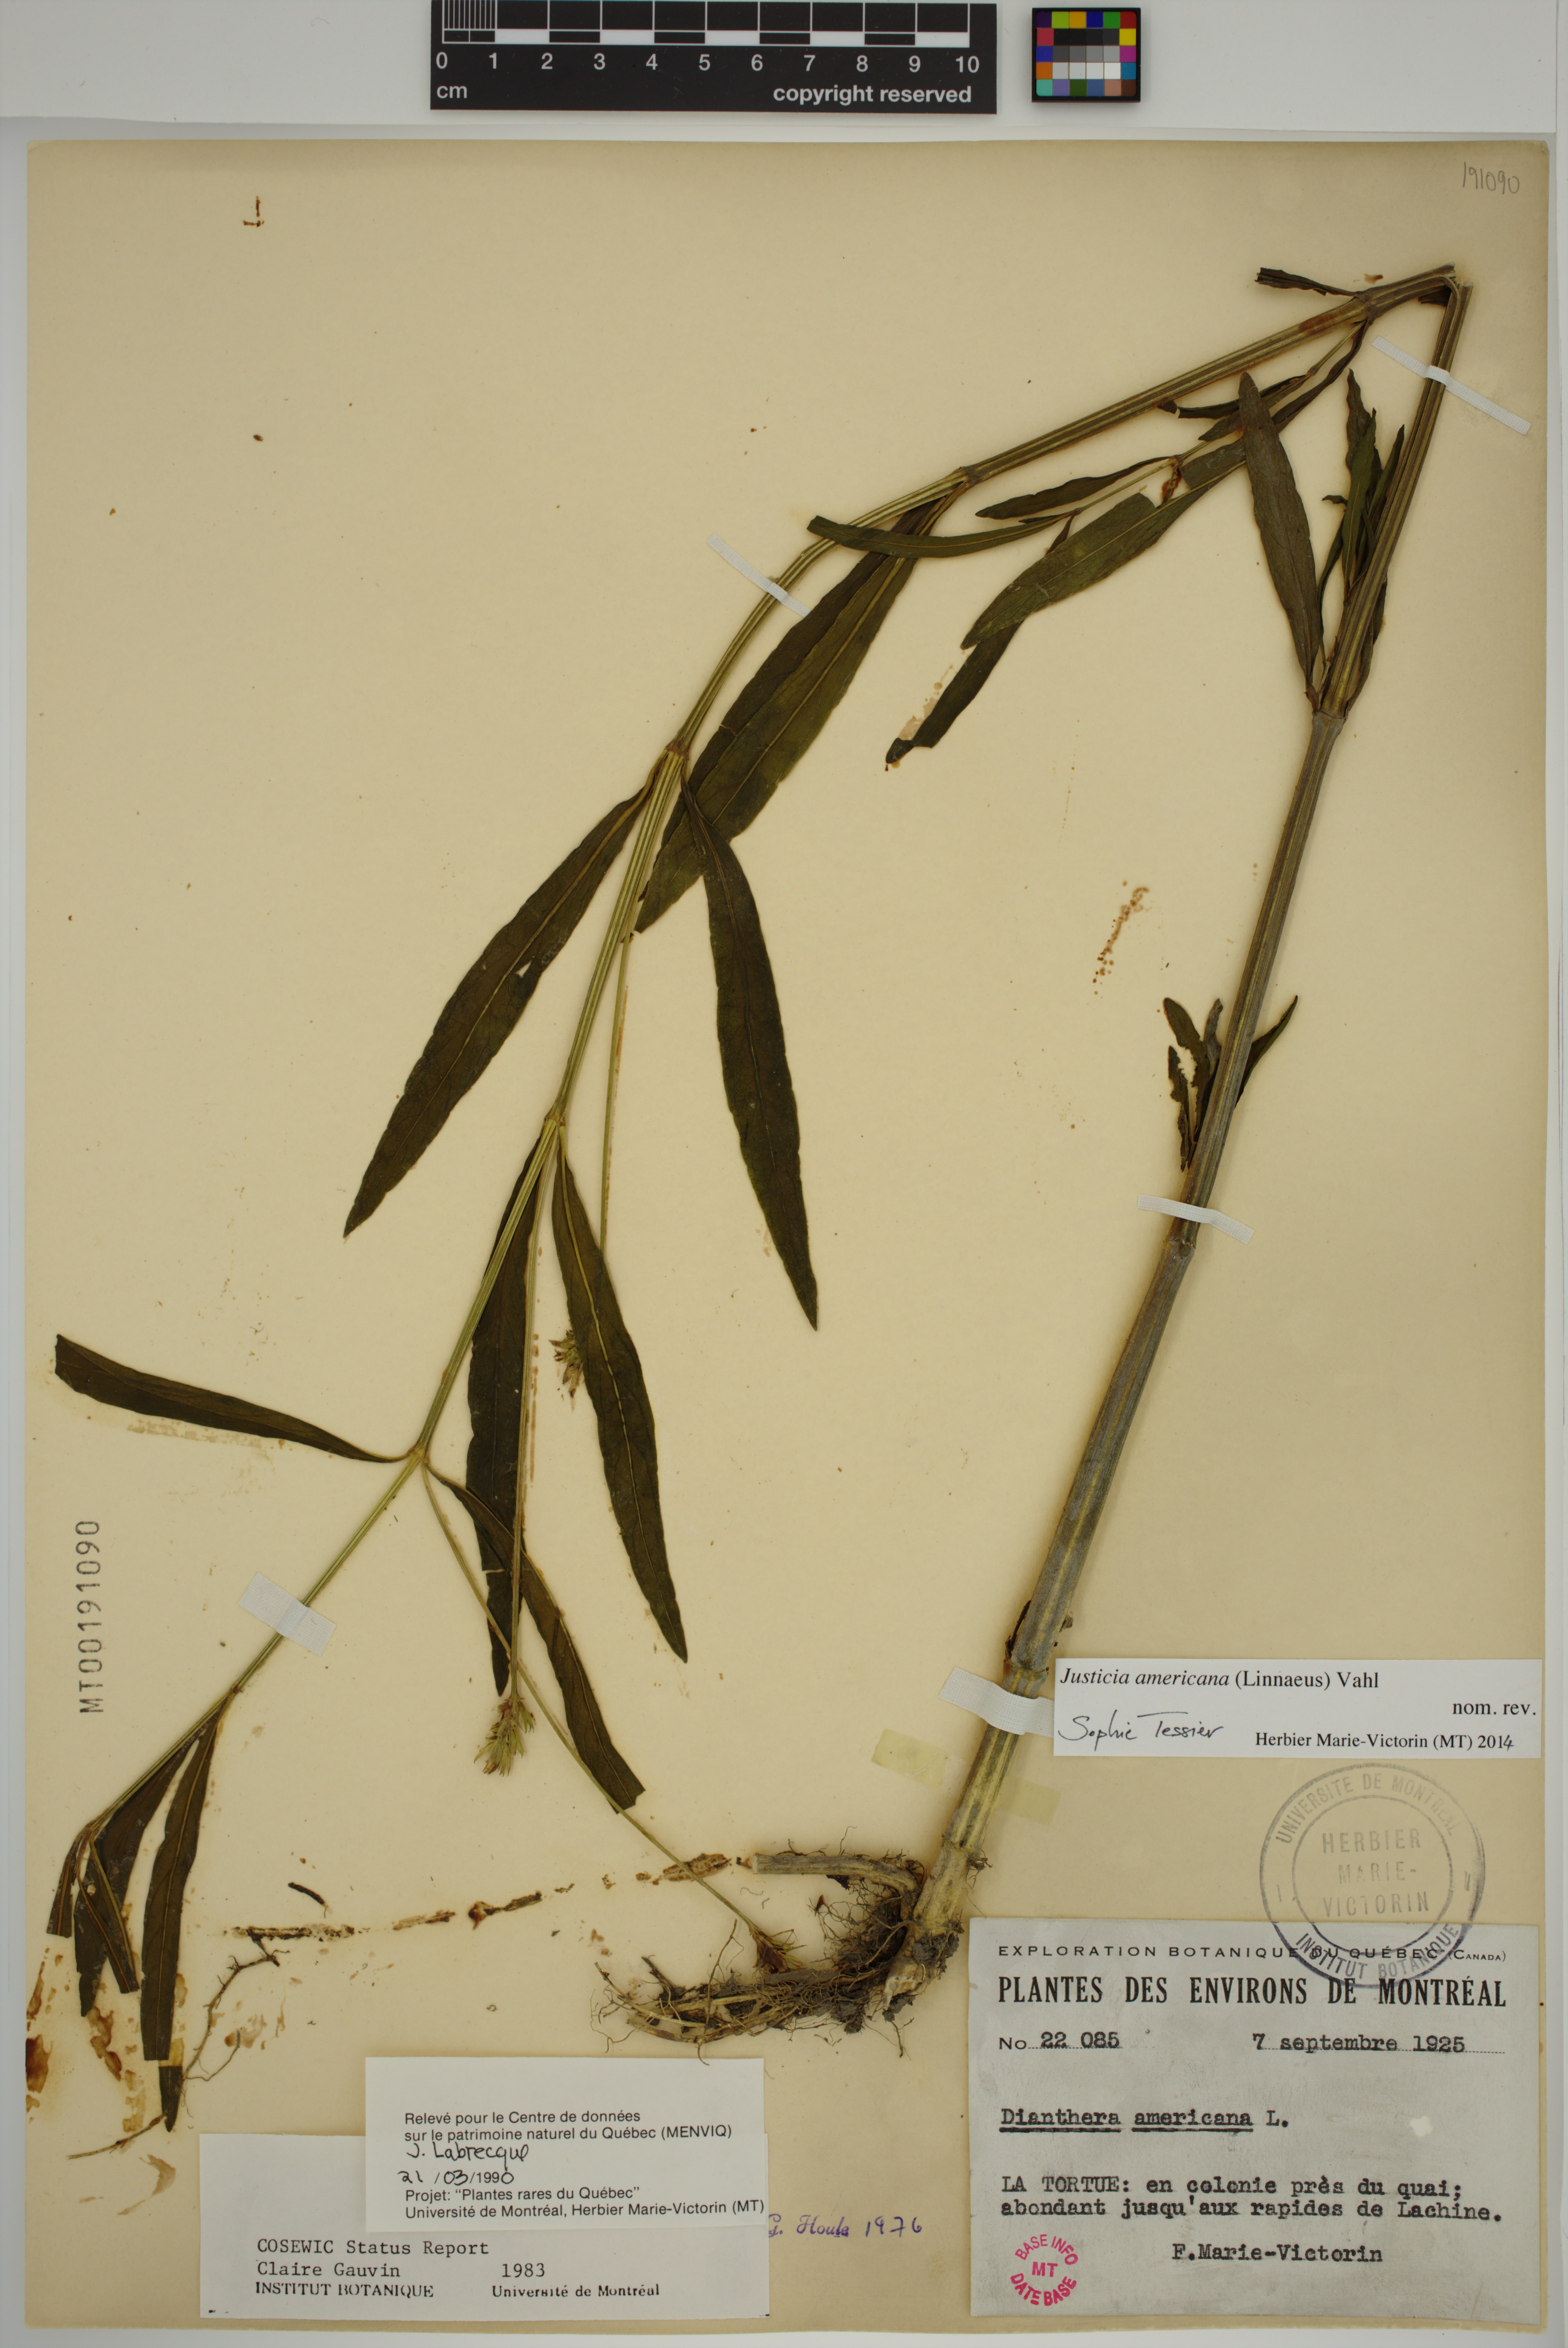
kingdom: Plantae
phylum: Tracheophyta
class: Magnoliopsida
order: Lamiales
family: Acanthaceae
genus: Dianthera
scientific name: Dianthera americana
